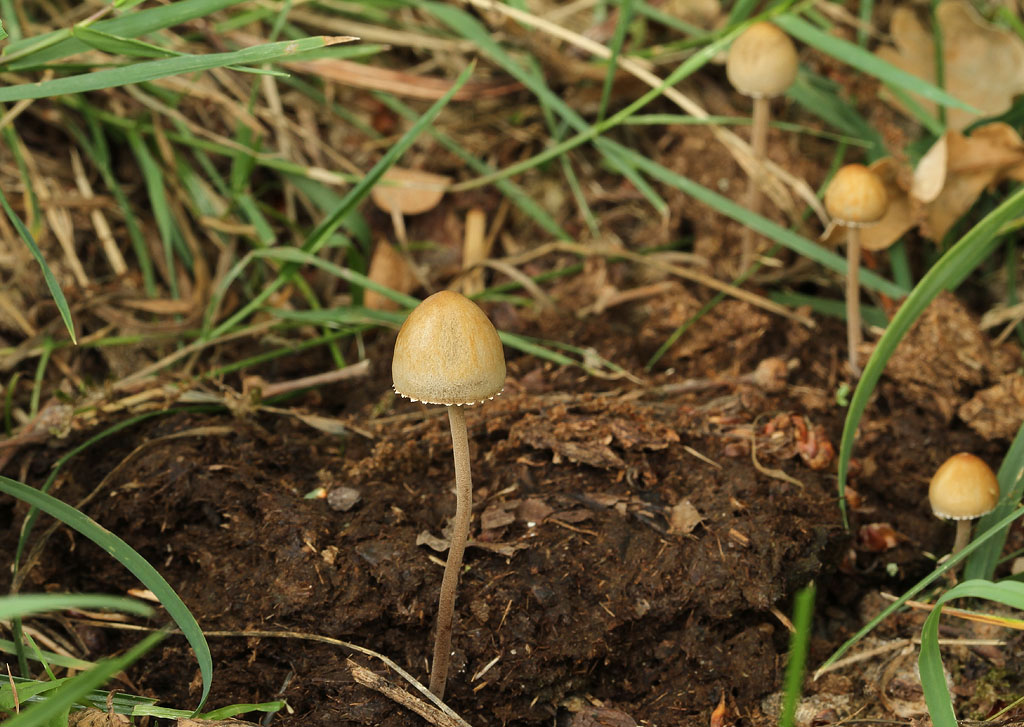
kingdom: Fungi
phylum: Basidiomycota
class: Agaricomycetes
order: Agaricales
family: Bolbitiaceae
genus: Panaeolus
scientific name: Panaeolus papilionaceus
